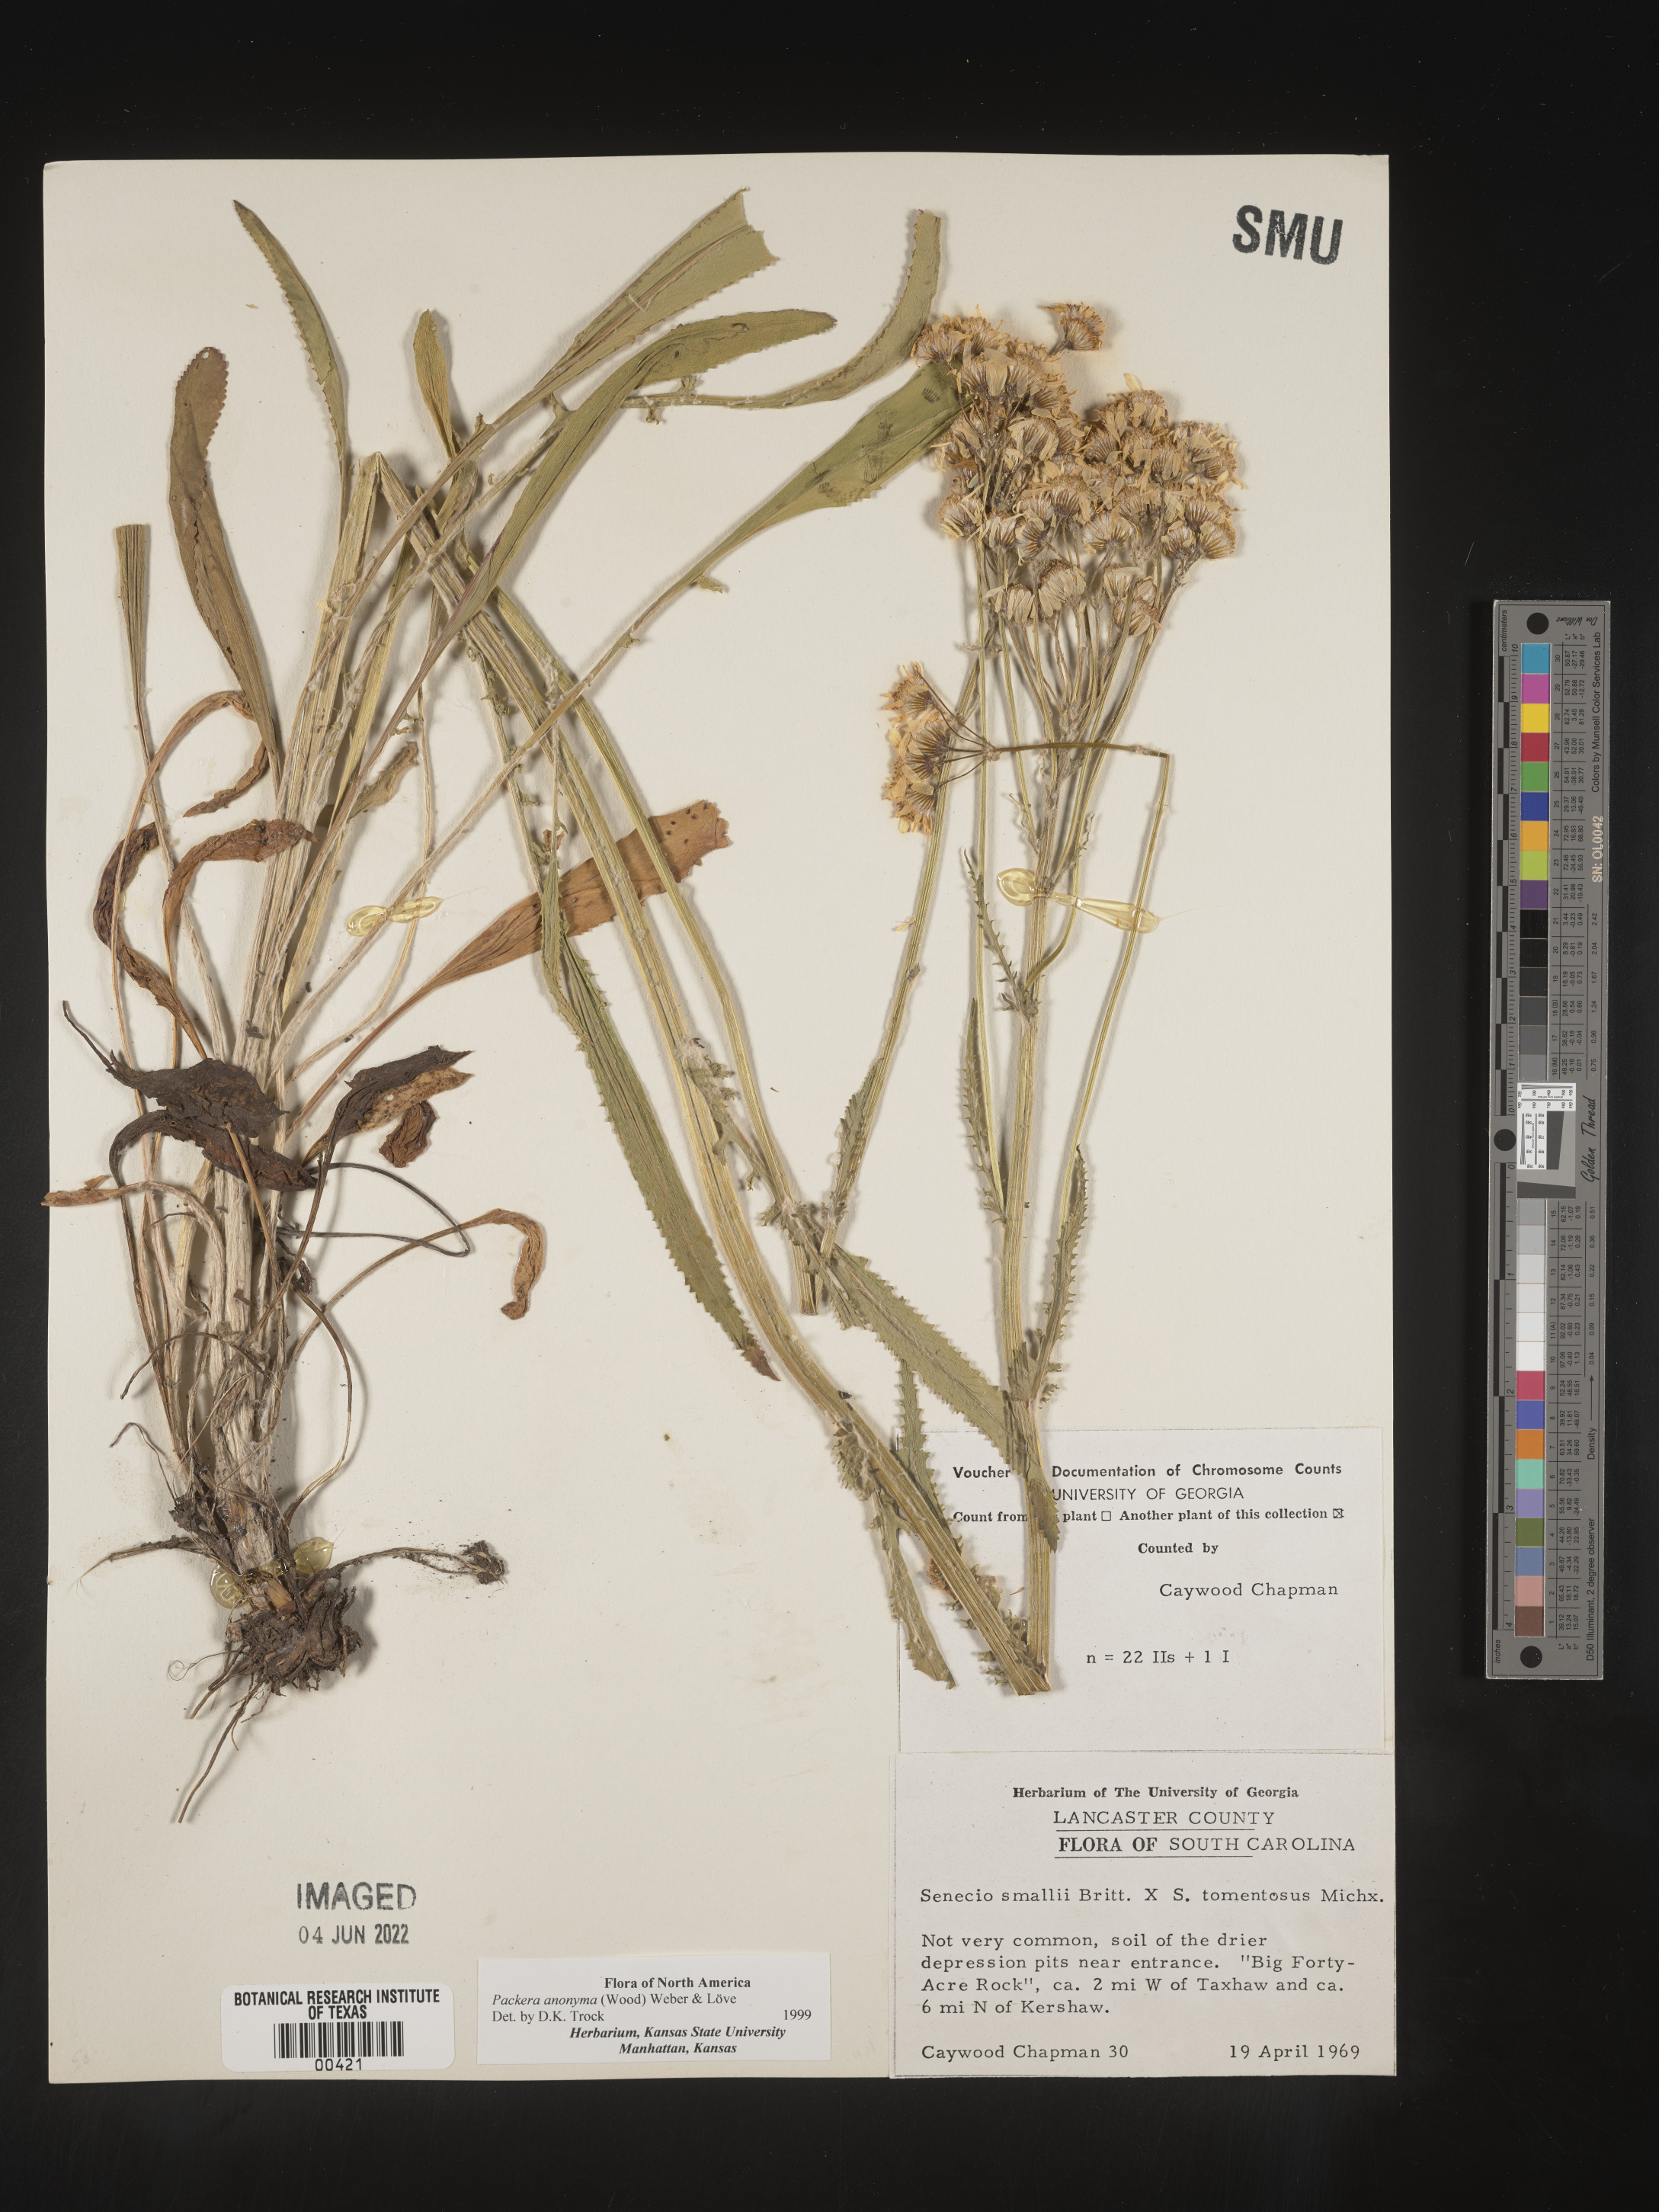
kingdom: Plantae
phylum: Tracheophyta
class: Magnoliopsida
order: Asterales
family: Asteraceae
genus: Packera
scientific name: Packera anonyma
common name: Small ragwort
